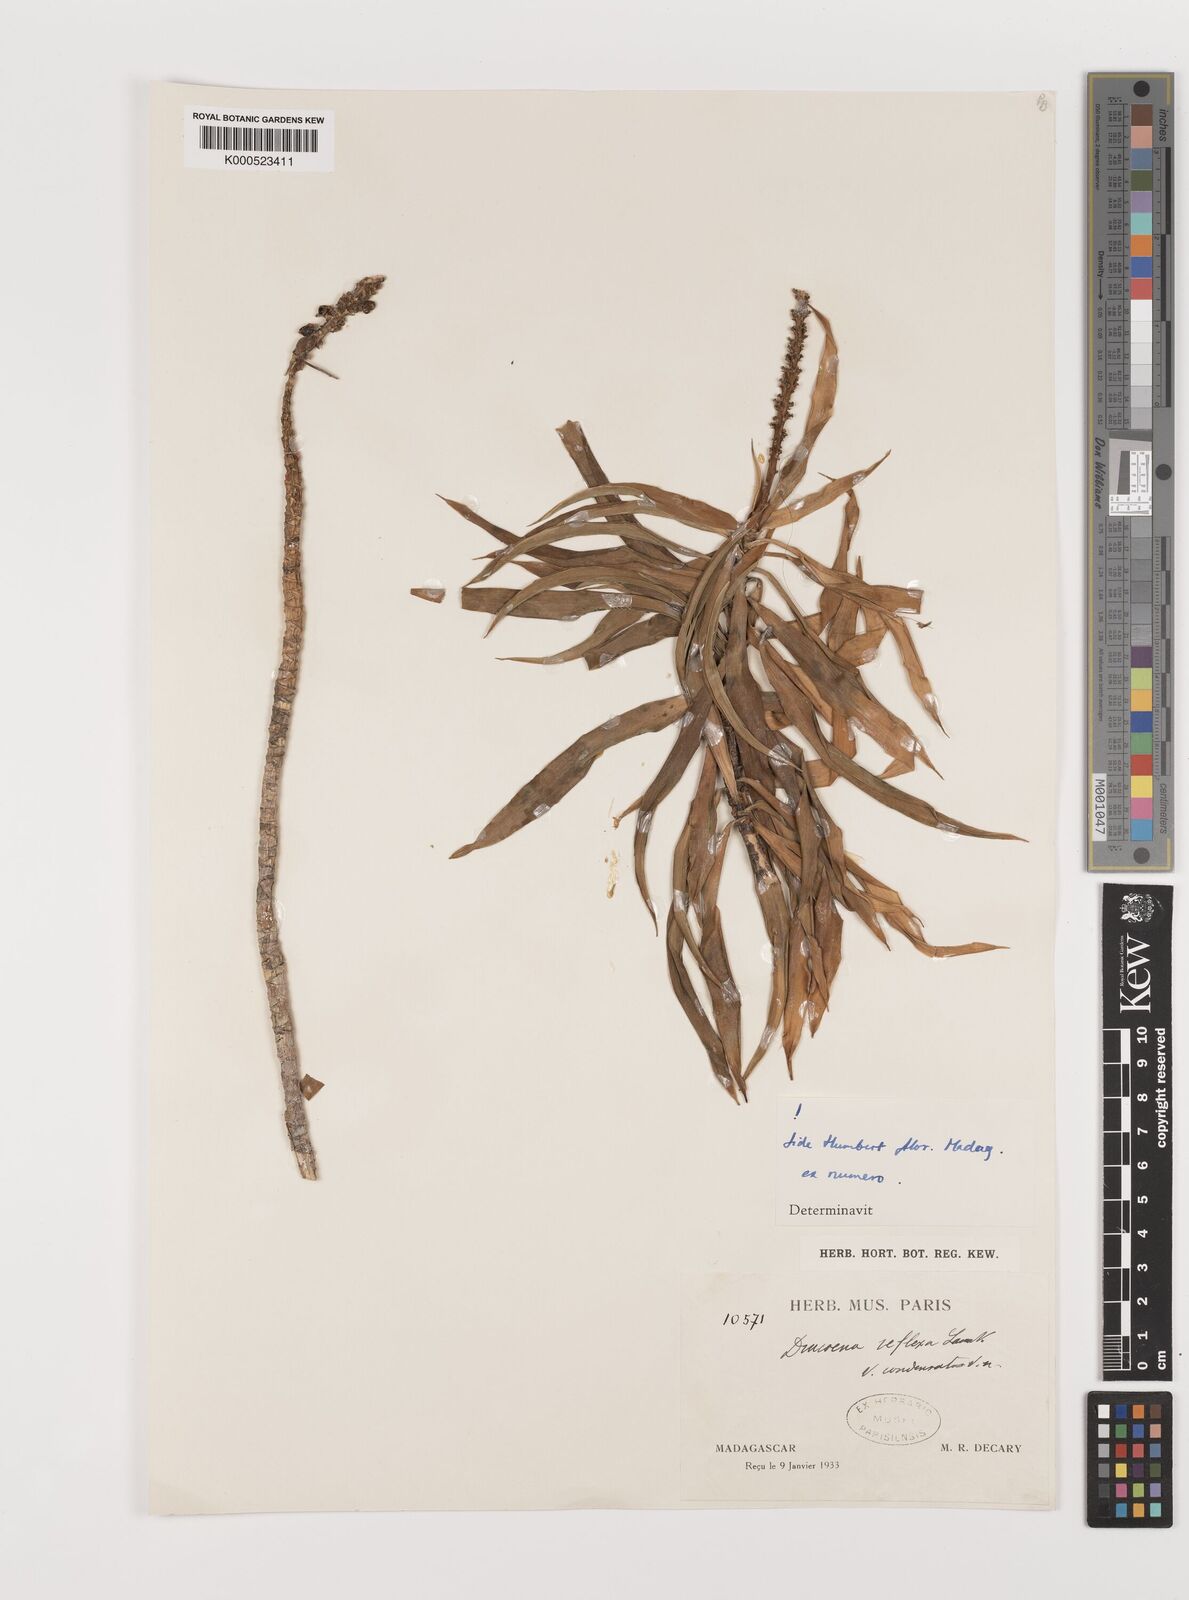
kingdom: Plantae
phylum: Tracheophyta
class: Liliopsida
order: Asparagales
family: Asparagaceae
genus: Dracaena
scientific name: Dracaena reflexa
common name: Song-of-india
